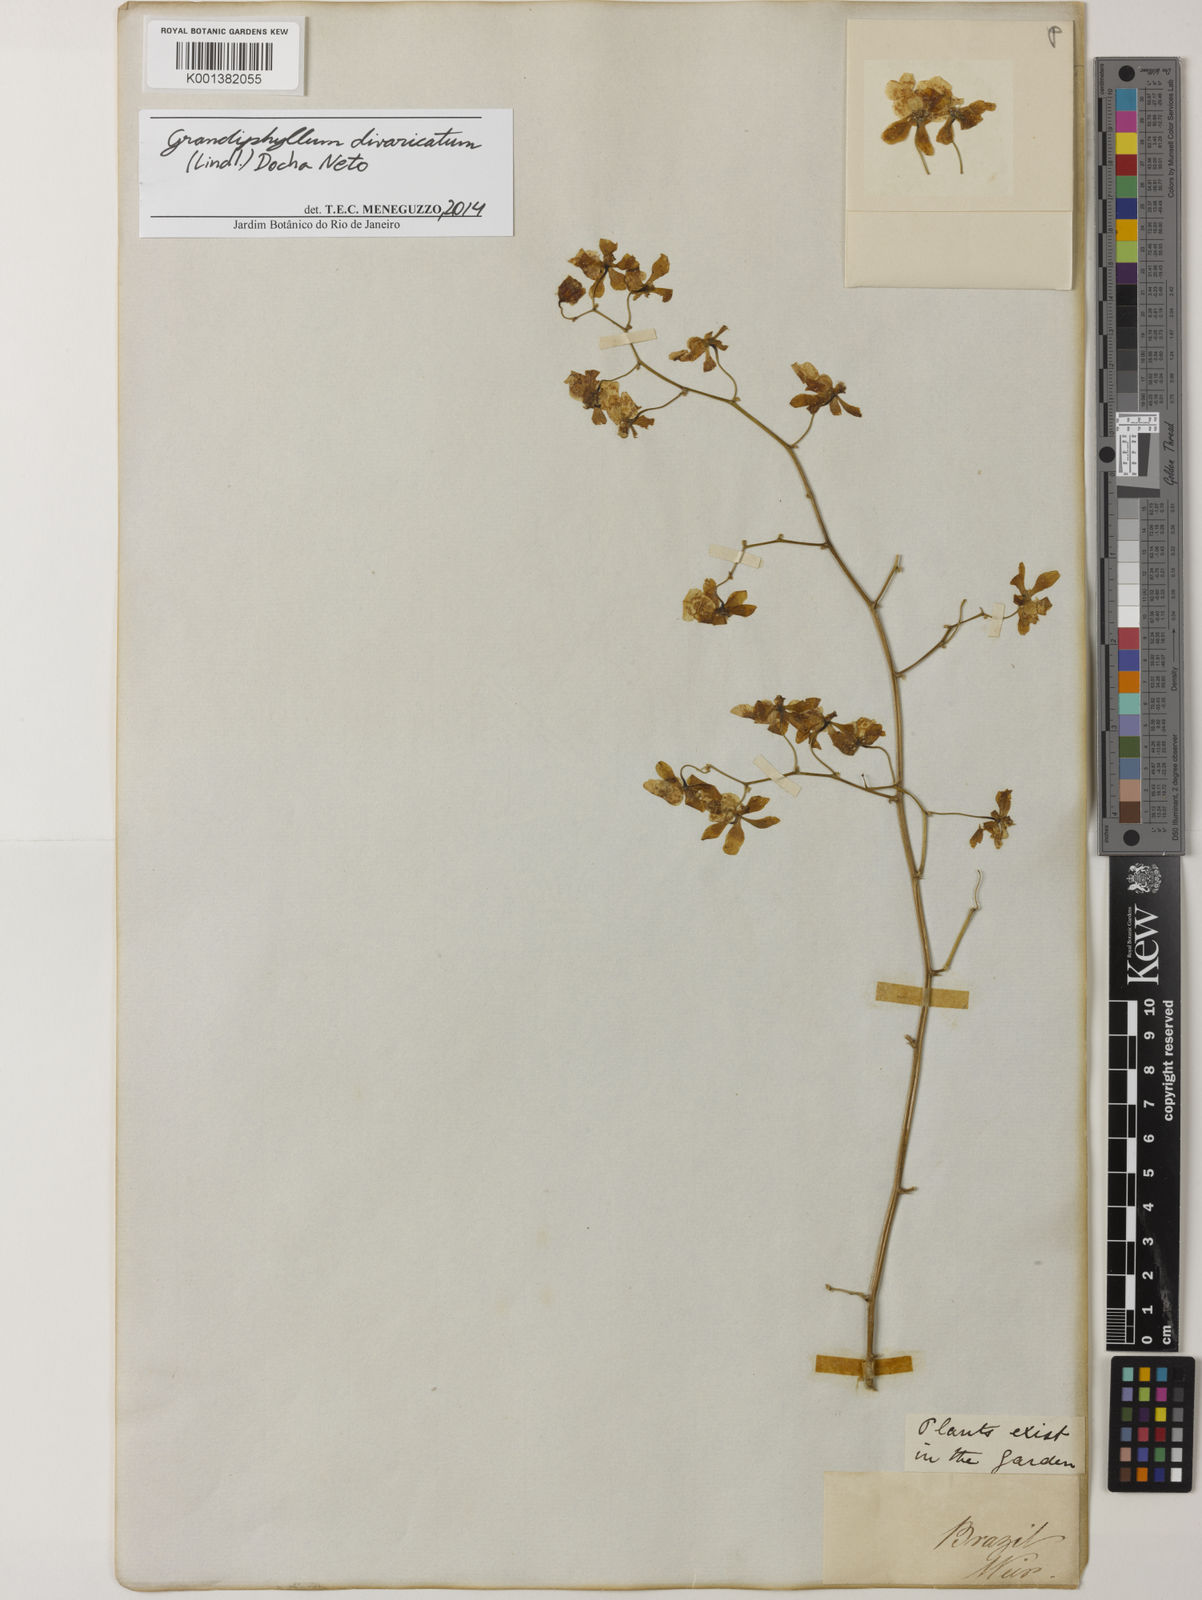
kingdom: Plantae
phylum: Tracheophyta
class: Liliopsida
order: Asparagales
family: Orchidaceae
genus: Grandiphyllum
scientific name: Grandiphyllum divaricatum
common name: Mule-ear orchid
